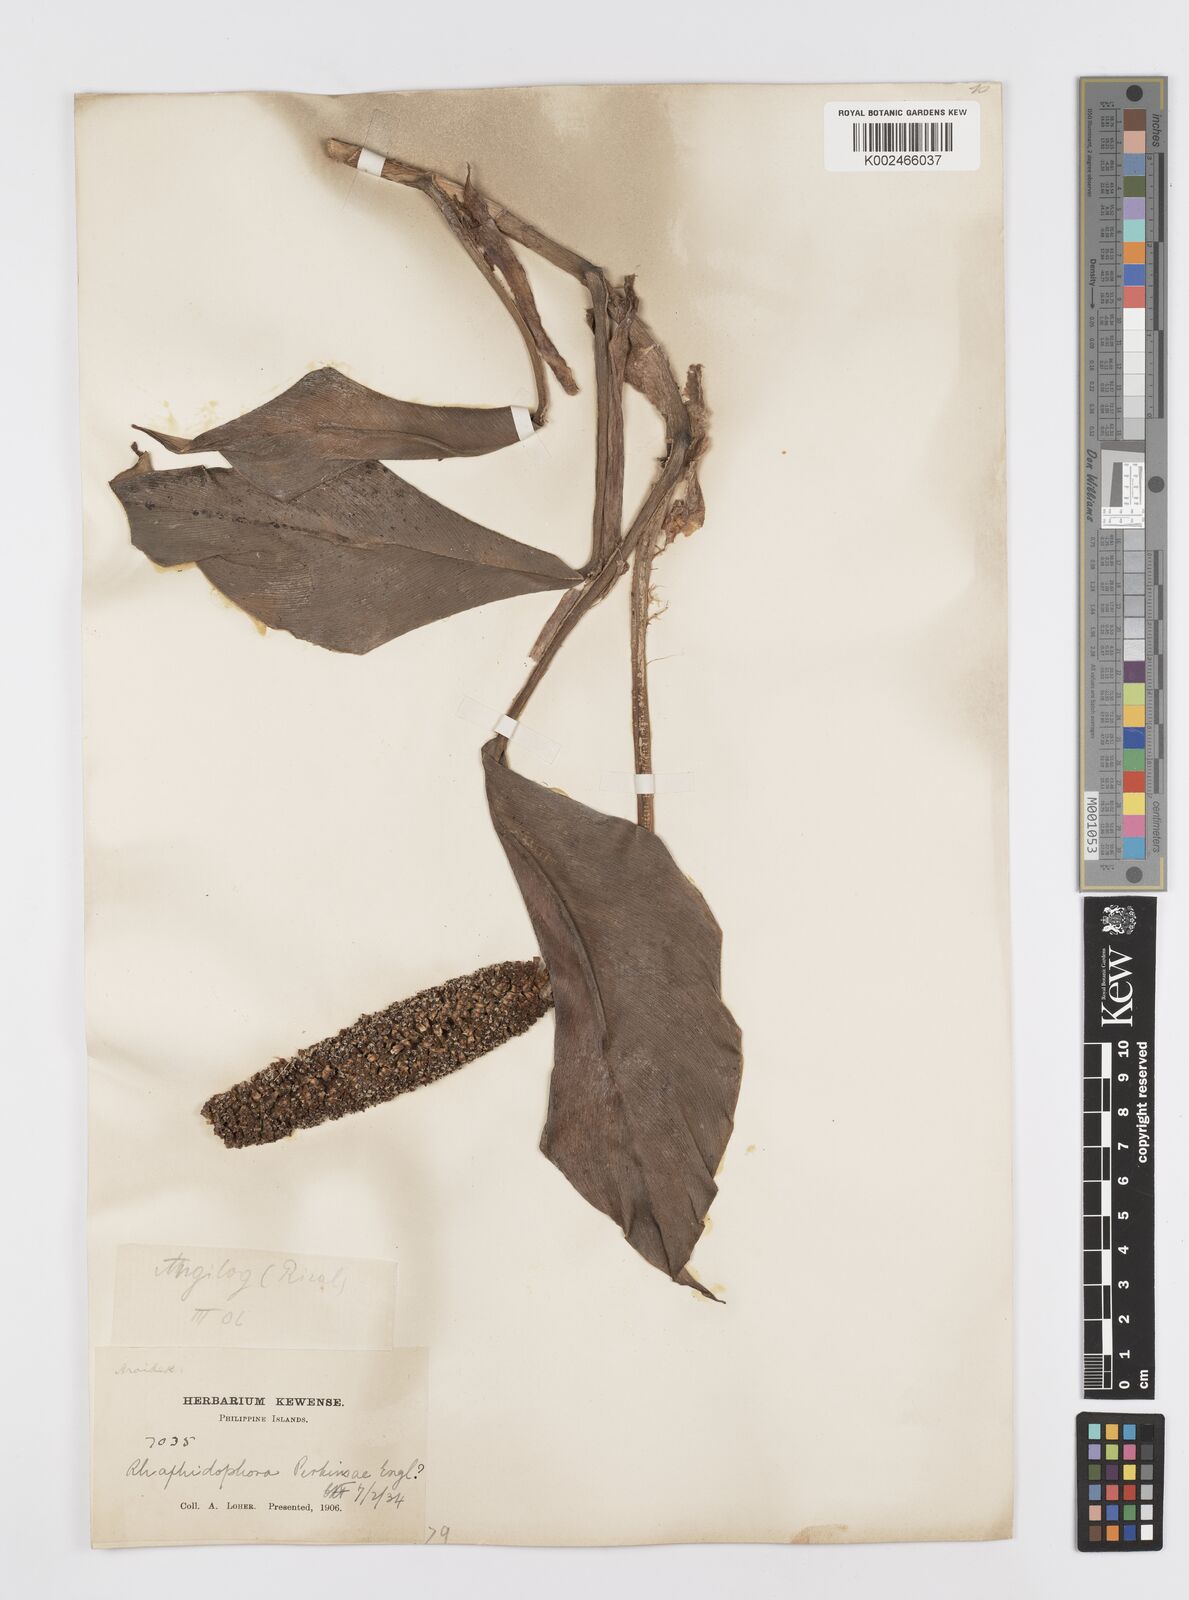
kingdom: Plantae
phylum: Tracheophyta
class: Liliopsida
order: Alismatales
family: Araceae
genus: Rhaphidophora
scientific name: Rhaphidophora perkinsiae
